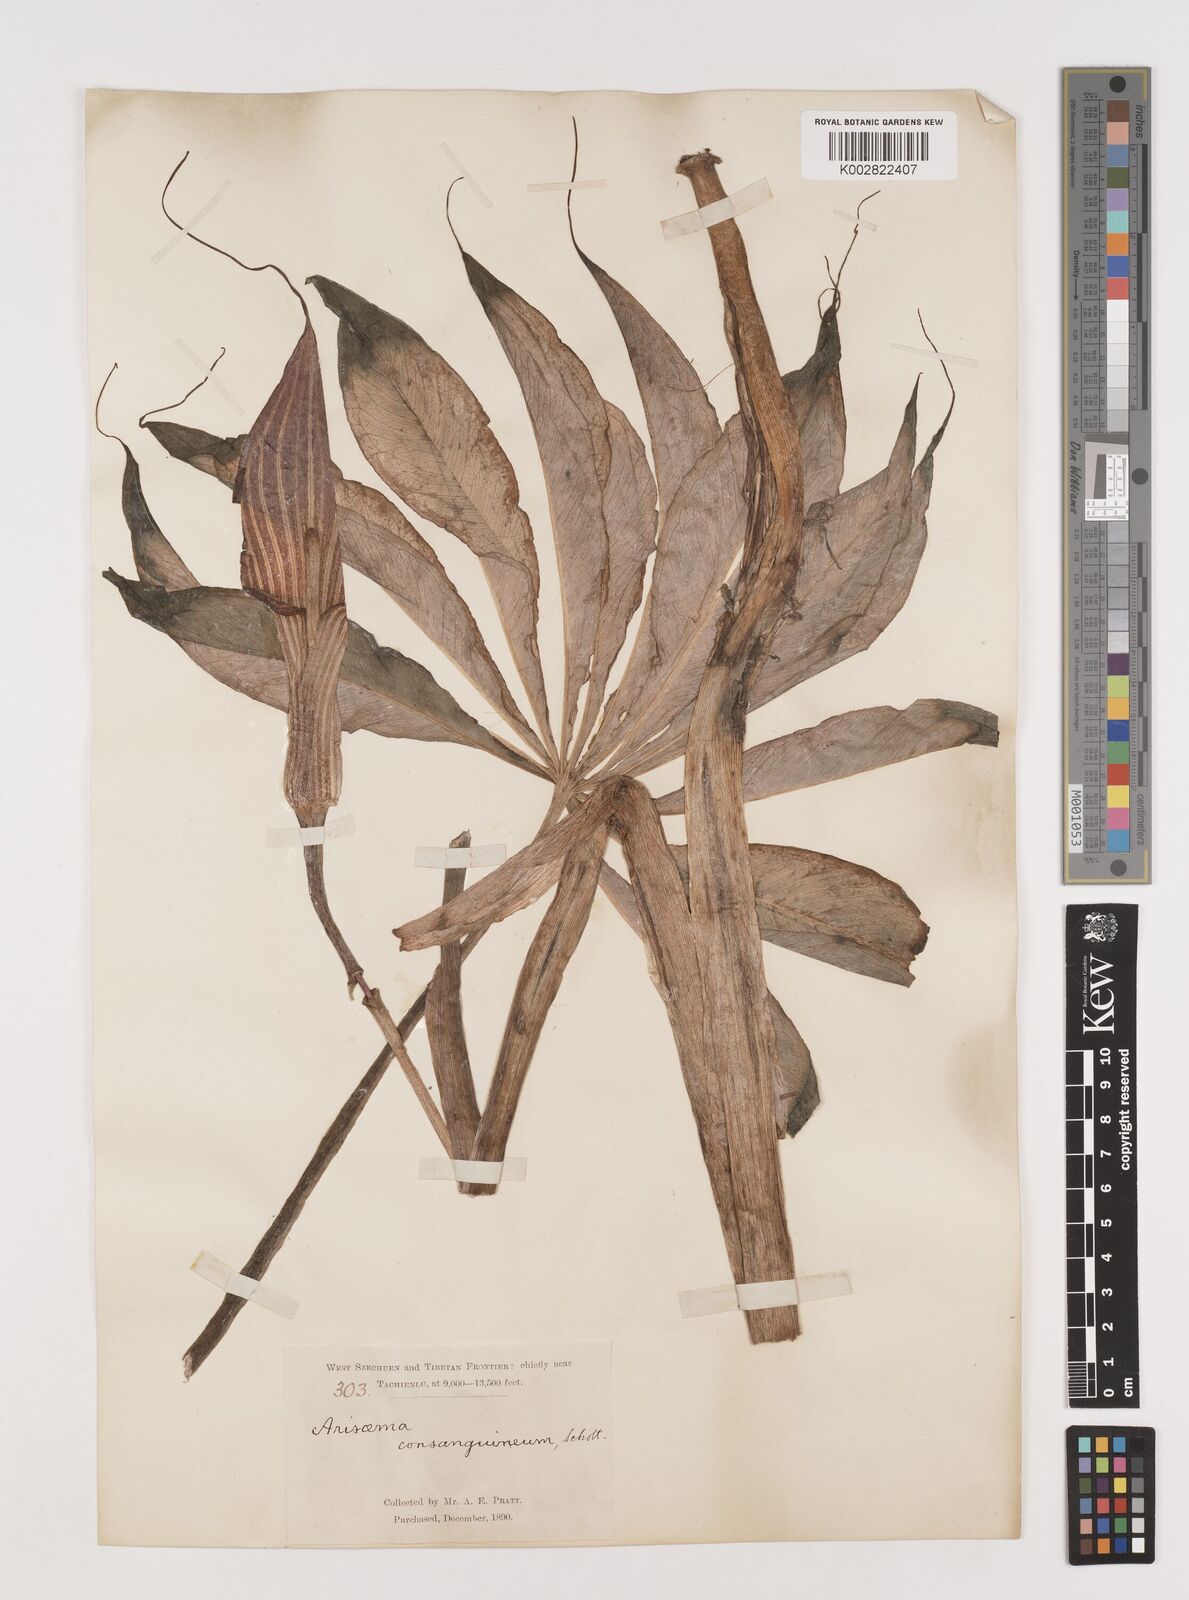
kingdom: Plantae
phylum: Tracheophyta
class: Liliopsida
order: Alismatales
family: Araceae
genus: Arisaema
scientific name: Arisaema erubescens
